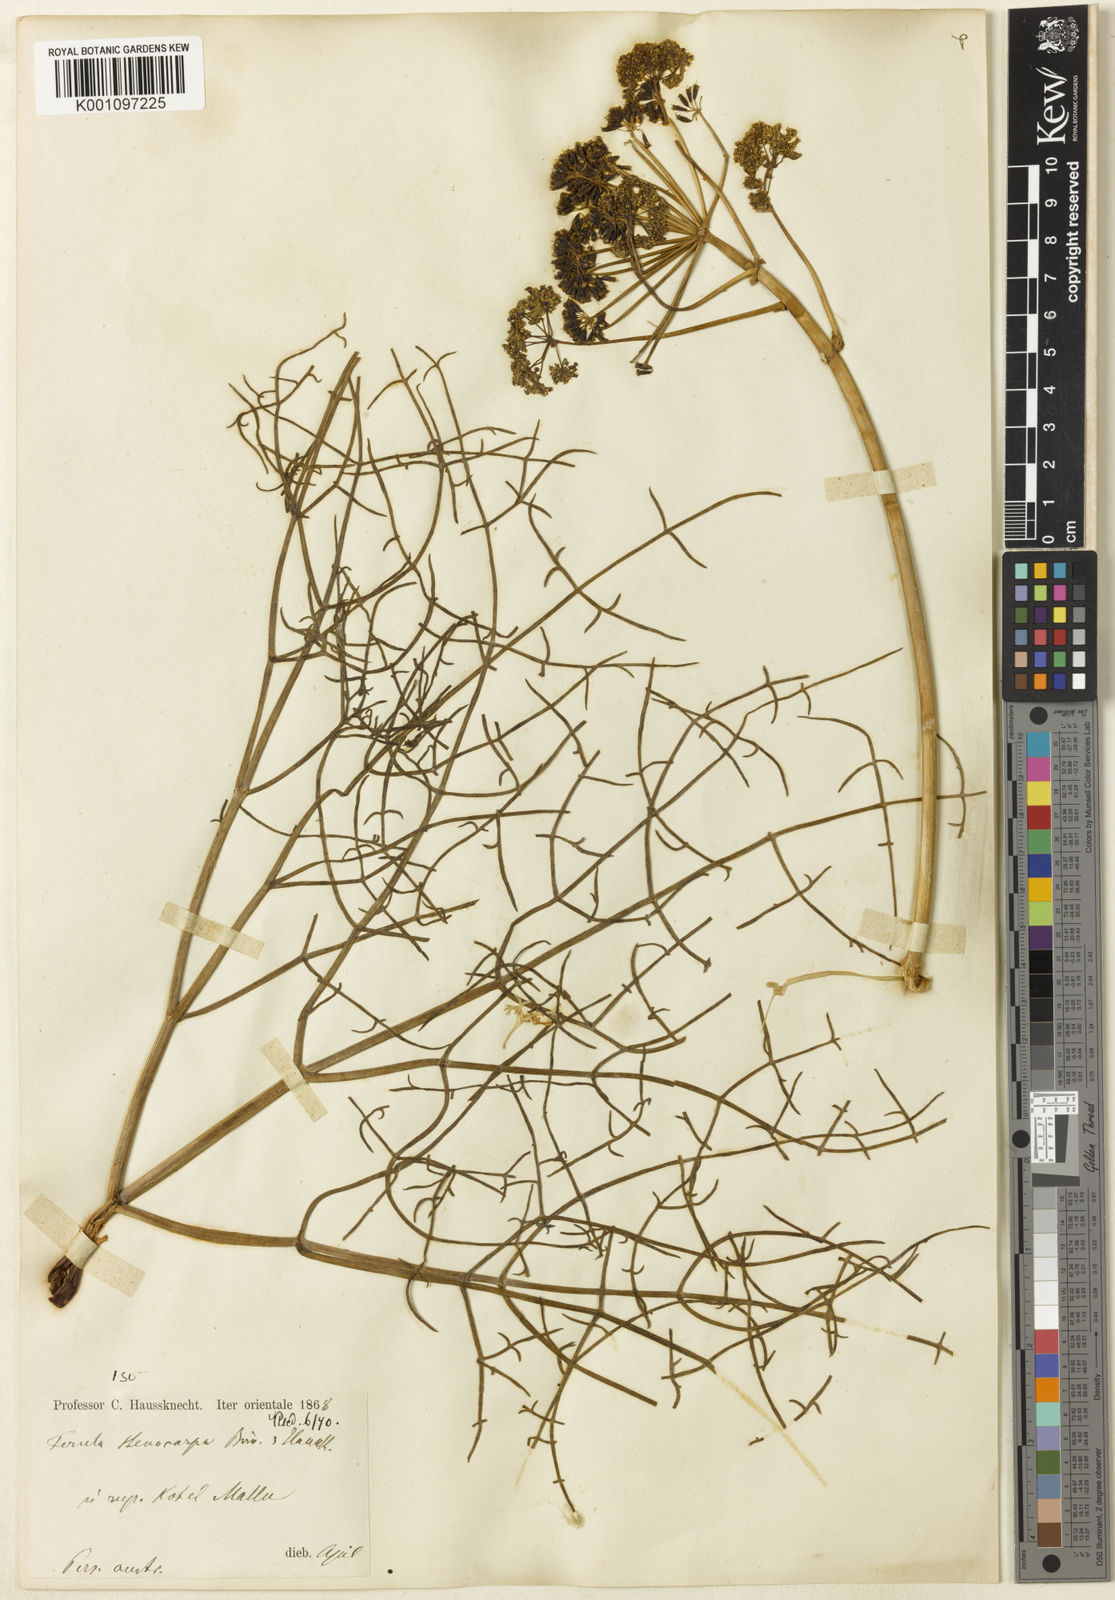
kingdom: Plantae
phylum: Tracheophyta
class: Magnoliopsida
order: Apiales
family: Apiaceae
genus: Ferula
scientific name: Ferula stenocarpa
